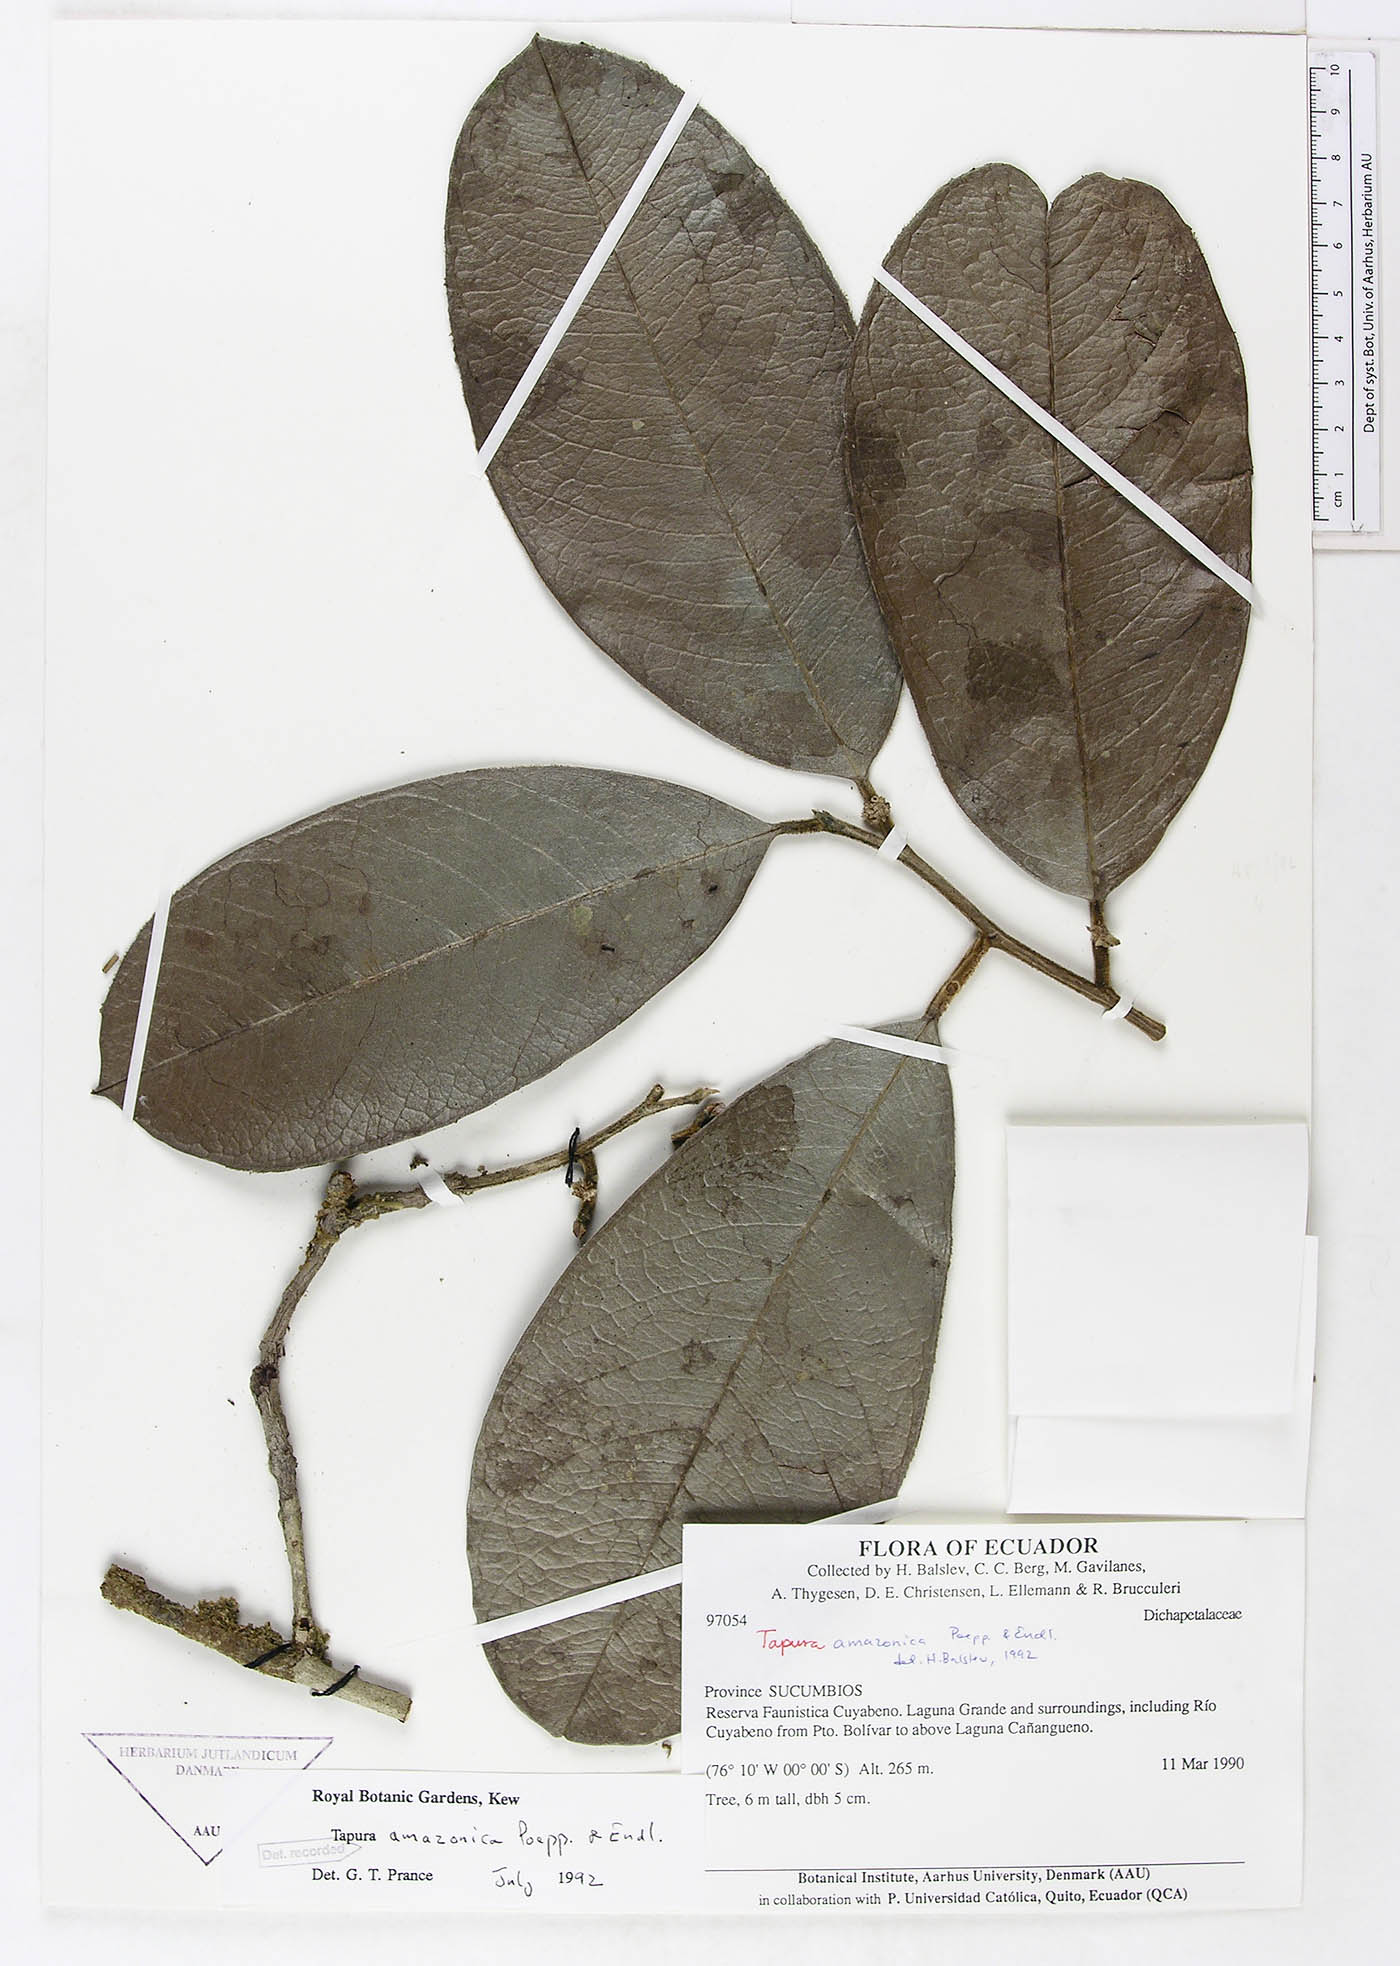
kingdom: Plantae
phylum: Tracheophyta
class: Magnoliopsida
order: Malpighiales
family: Dichapetalaceae
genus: Tapura
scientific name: Tapura amazonica
